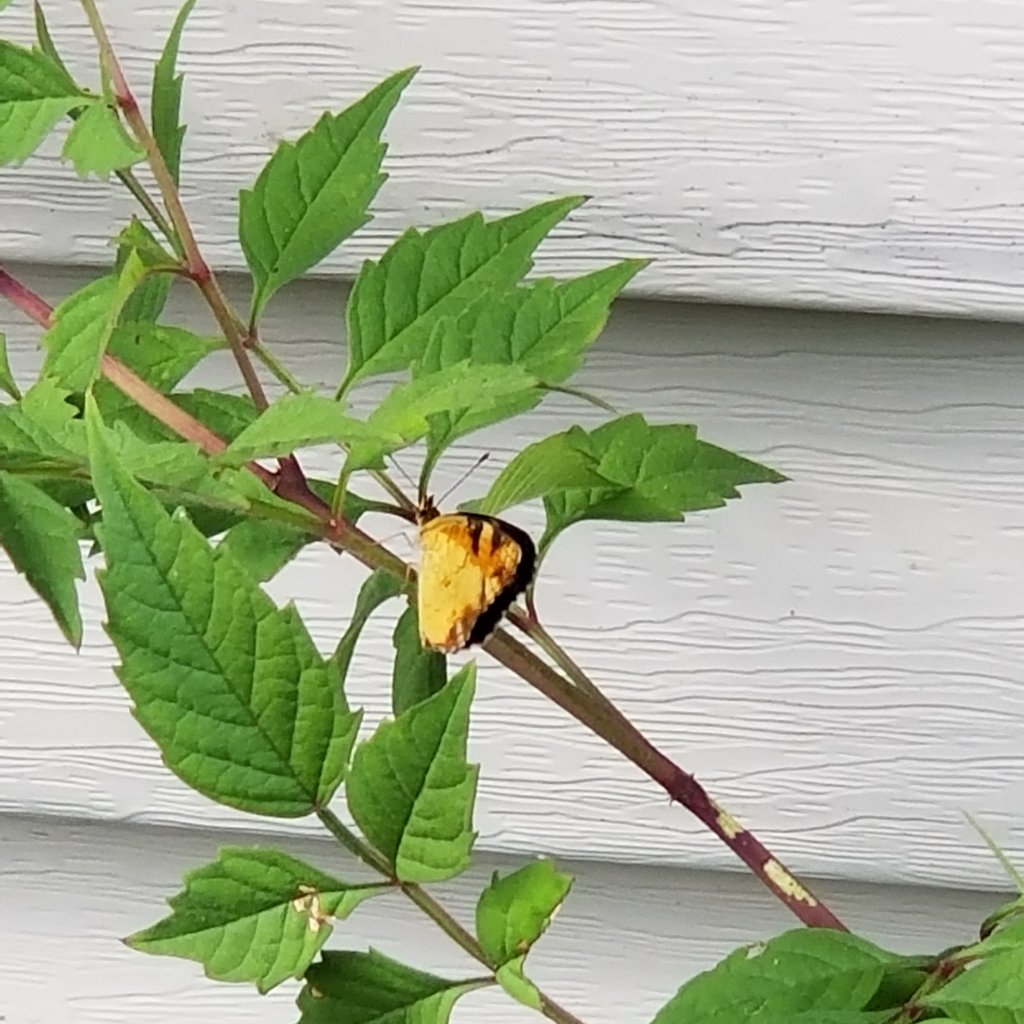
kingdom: Animalia
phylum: Arthropoda
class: Insecta
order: Lepidoptera
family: Nymphalidae
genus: Phyciodes
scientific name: Phyciodes tharos
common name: Northern Crescent
